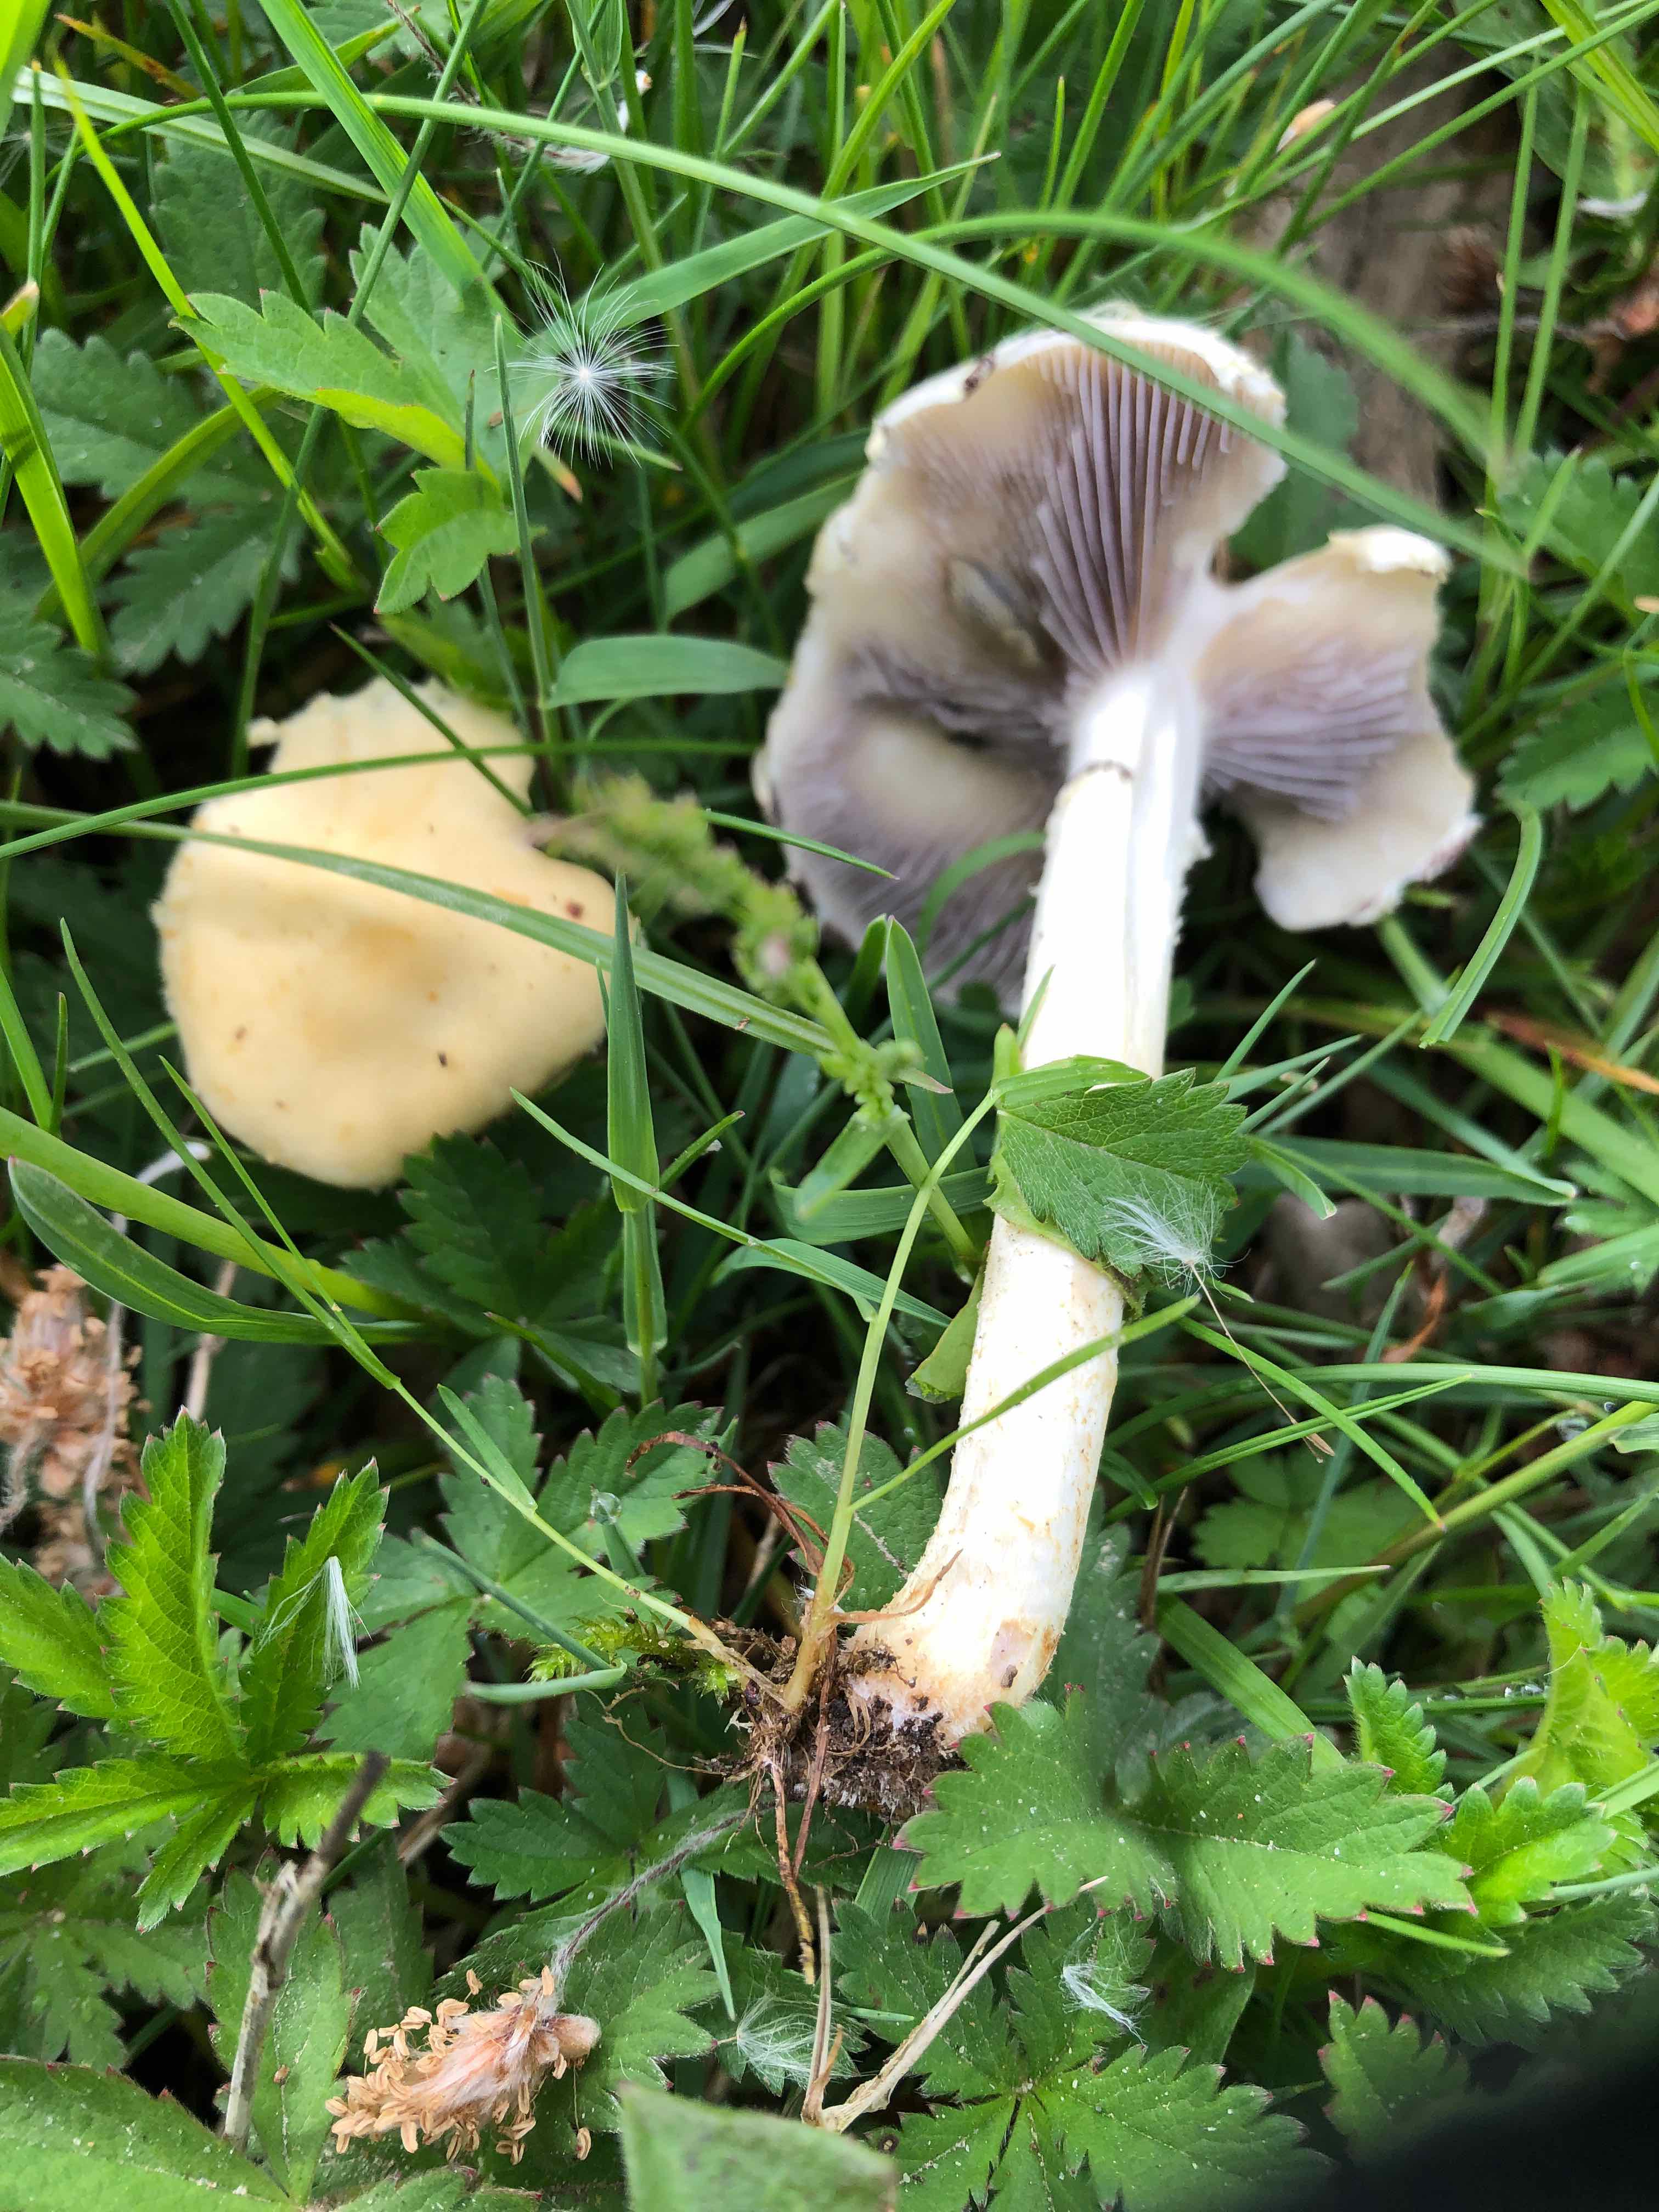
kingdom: Fungi
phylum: Basidiomycota
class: Agaricomycetes
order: Agaricales
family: Strophariaceae
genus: Agrocybe
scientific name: Agrocybe pediades
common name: almindelig agerhat
